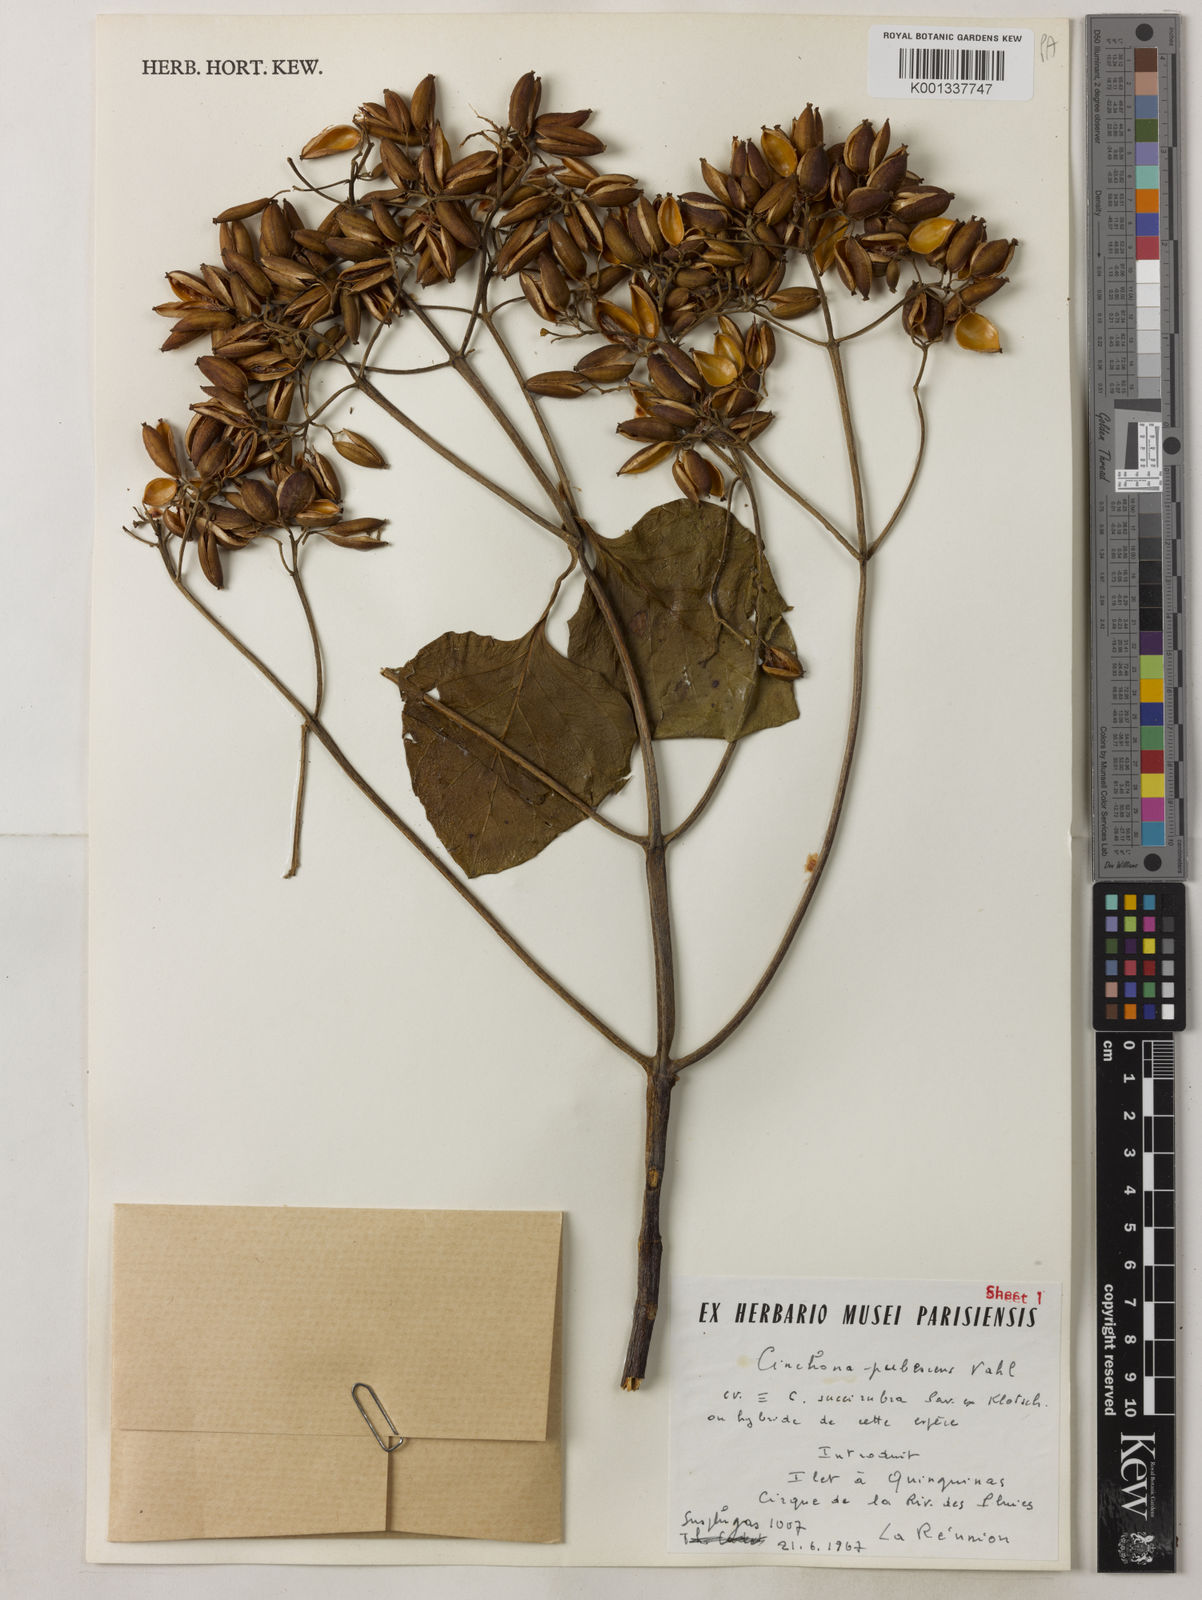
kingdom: Plantae
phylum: Tracheophyta
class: Magnoliopsida
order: Gentianales
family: Rubiaceae
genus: Cinchona
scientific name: Cinchona pubescens
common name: Quinine
